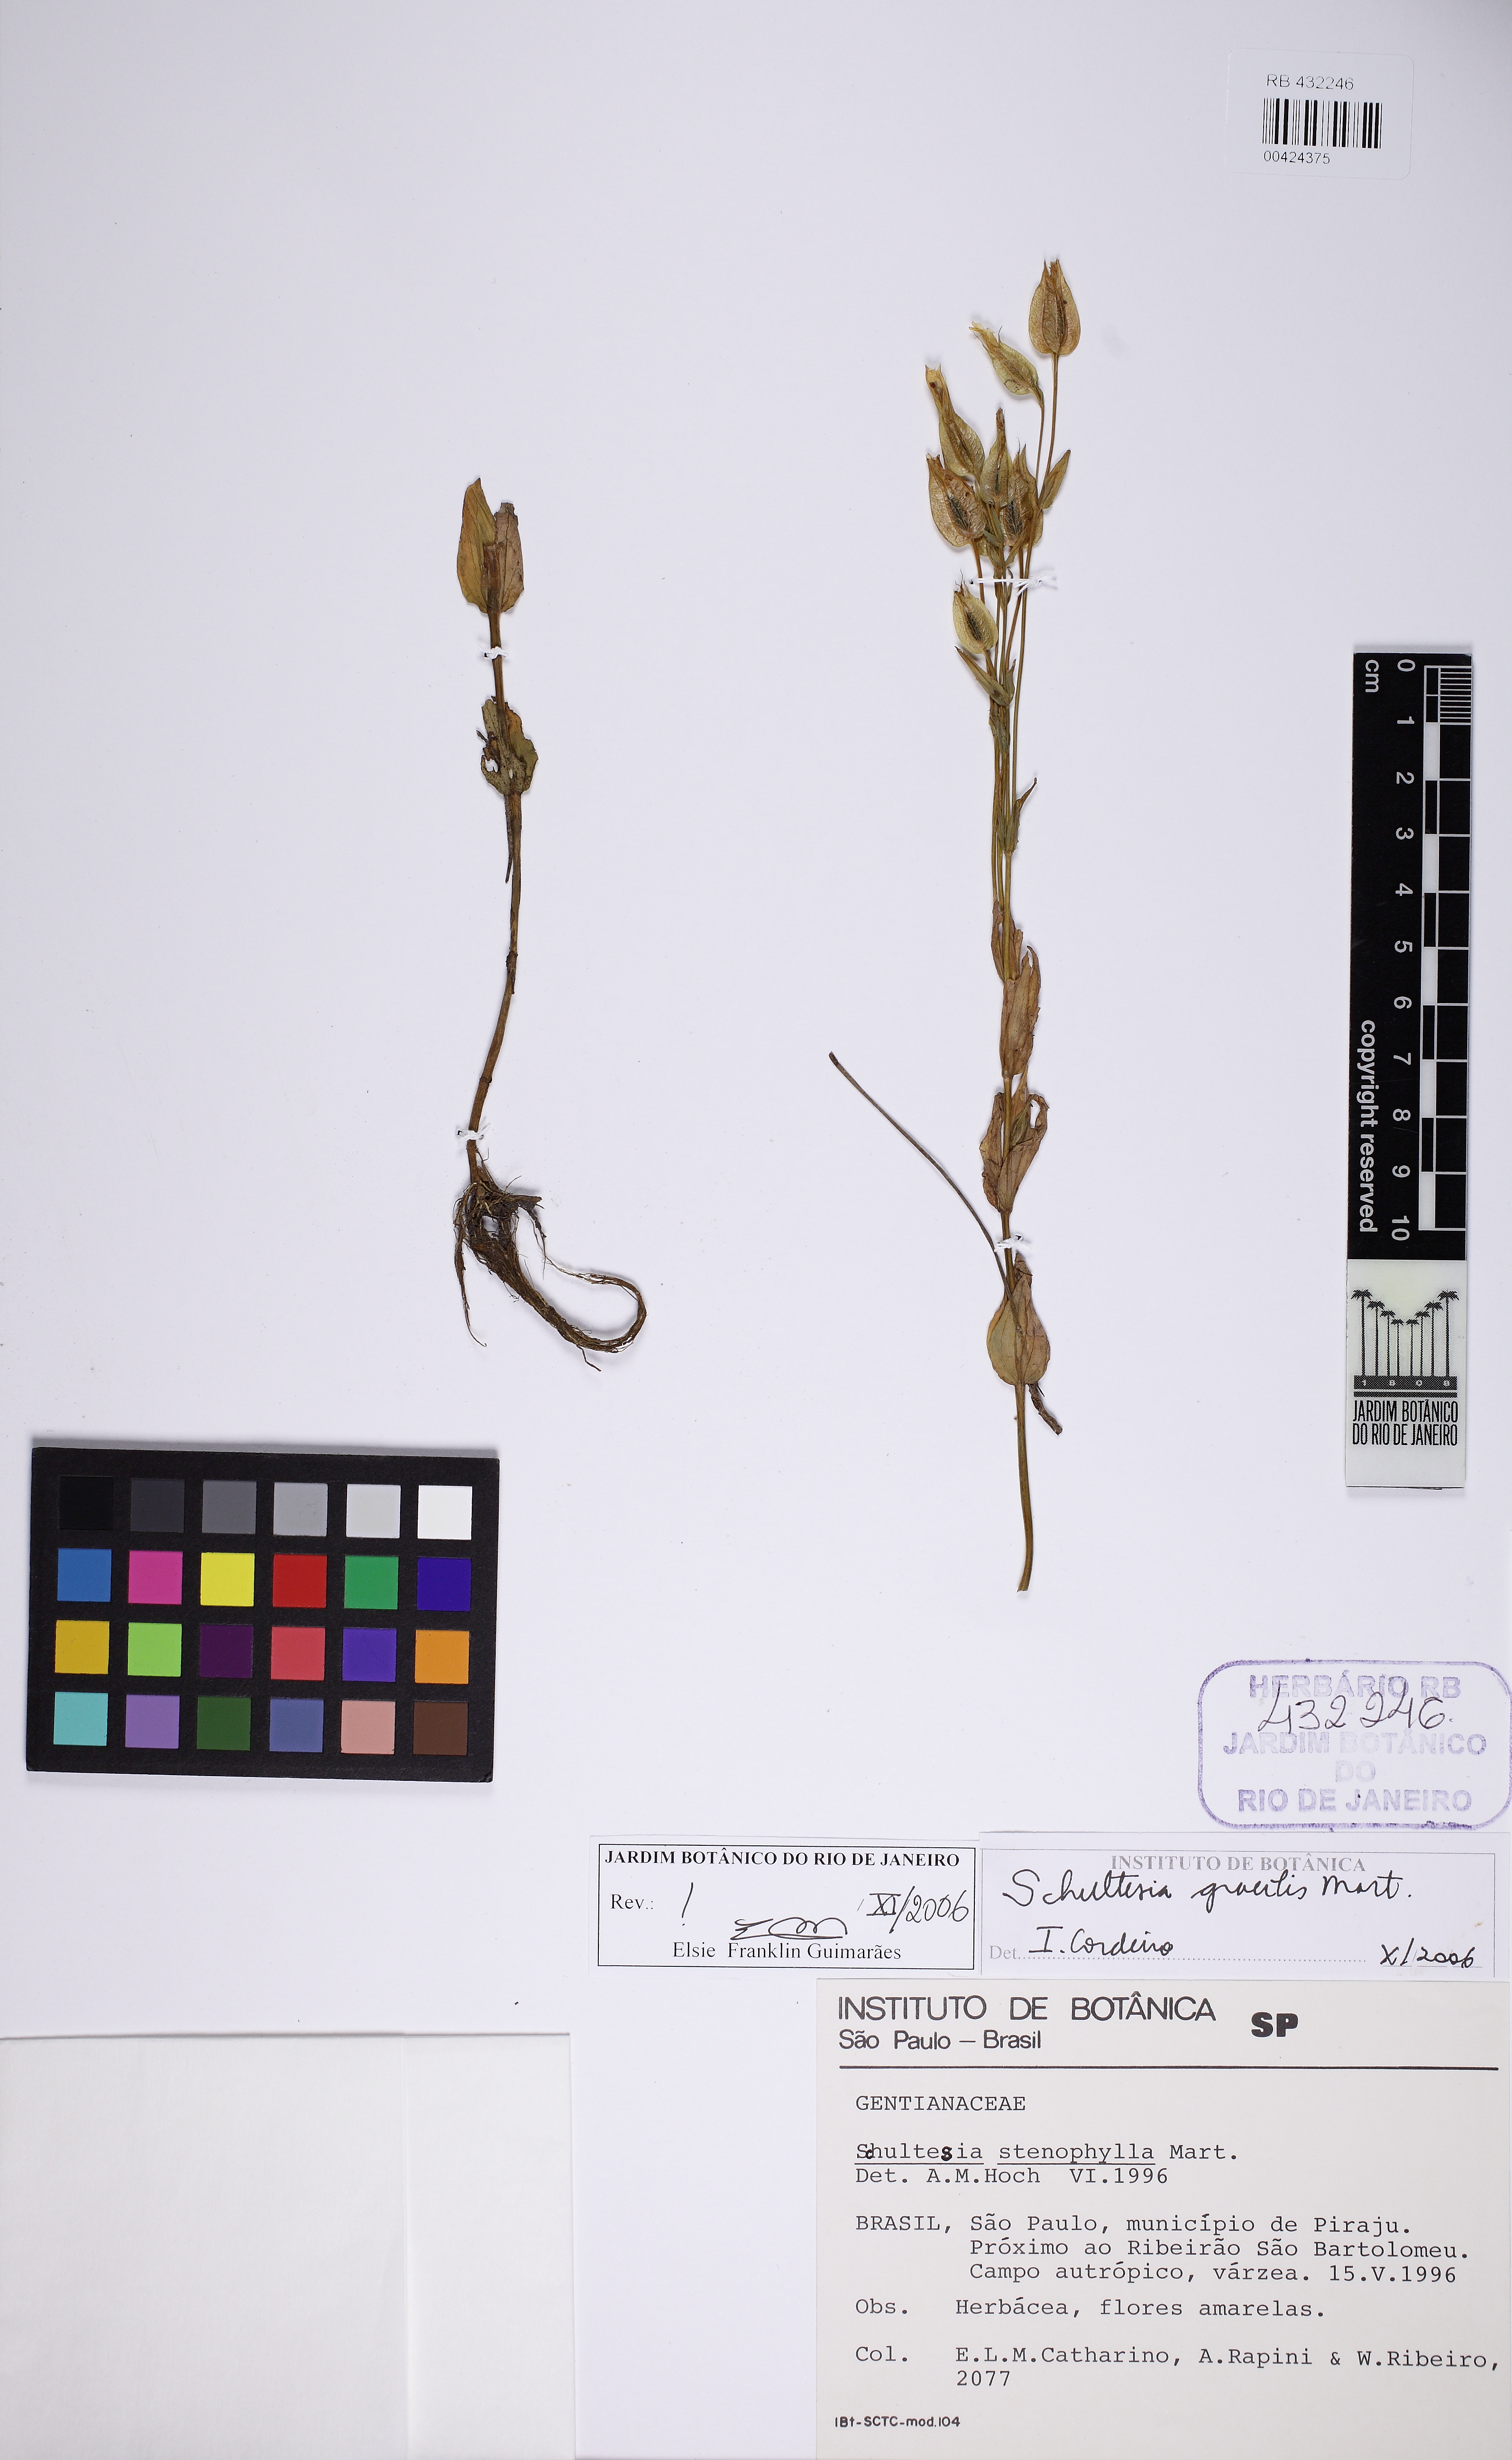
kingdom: Plantae
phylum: Tracheophyta
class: Magnoliopsida
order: Gentianales
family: Gentianaceae
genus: Schultesia
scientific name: Schultesia gracilis
